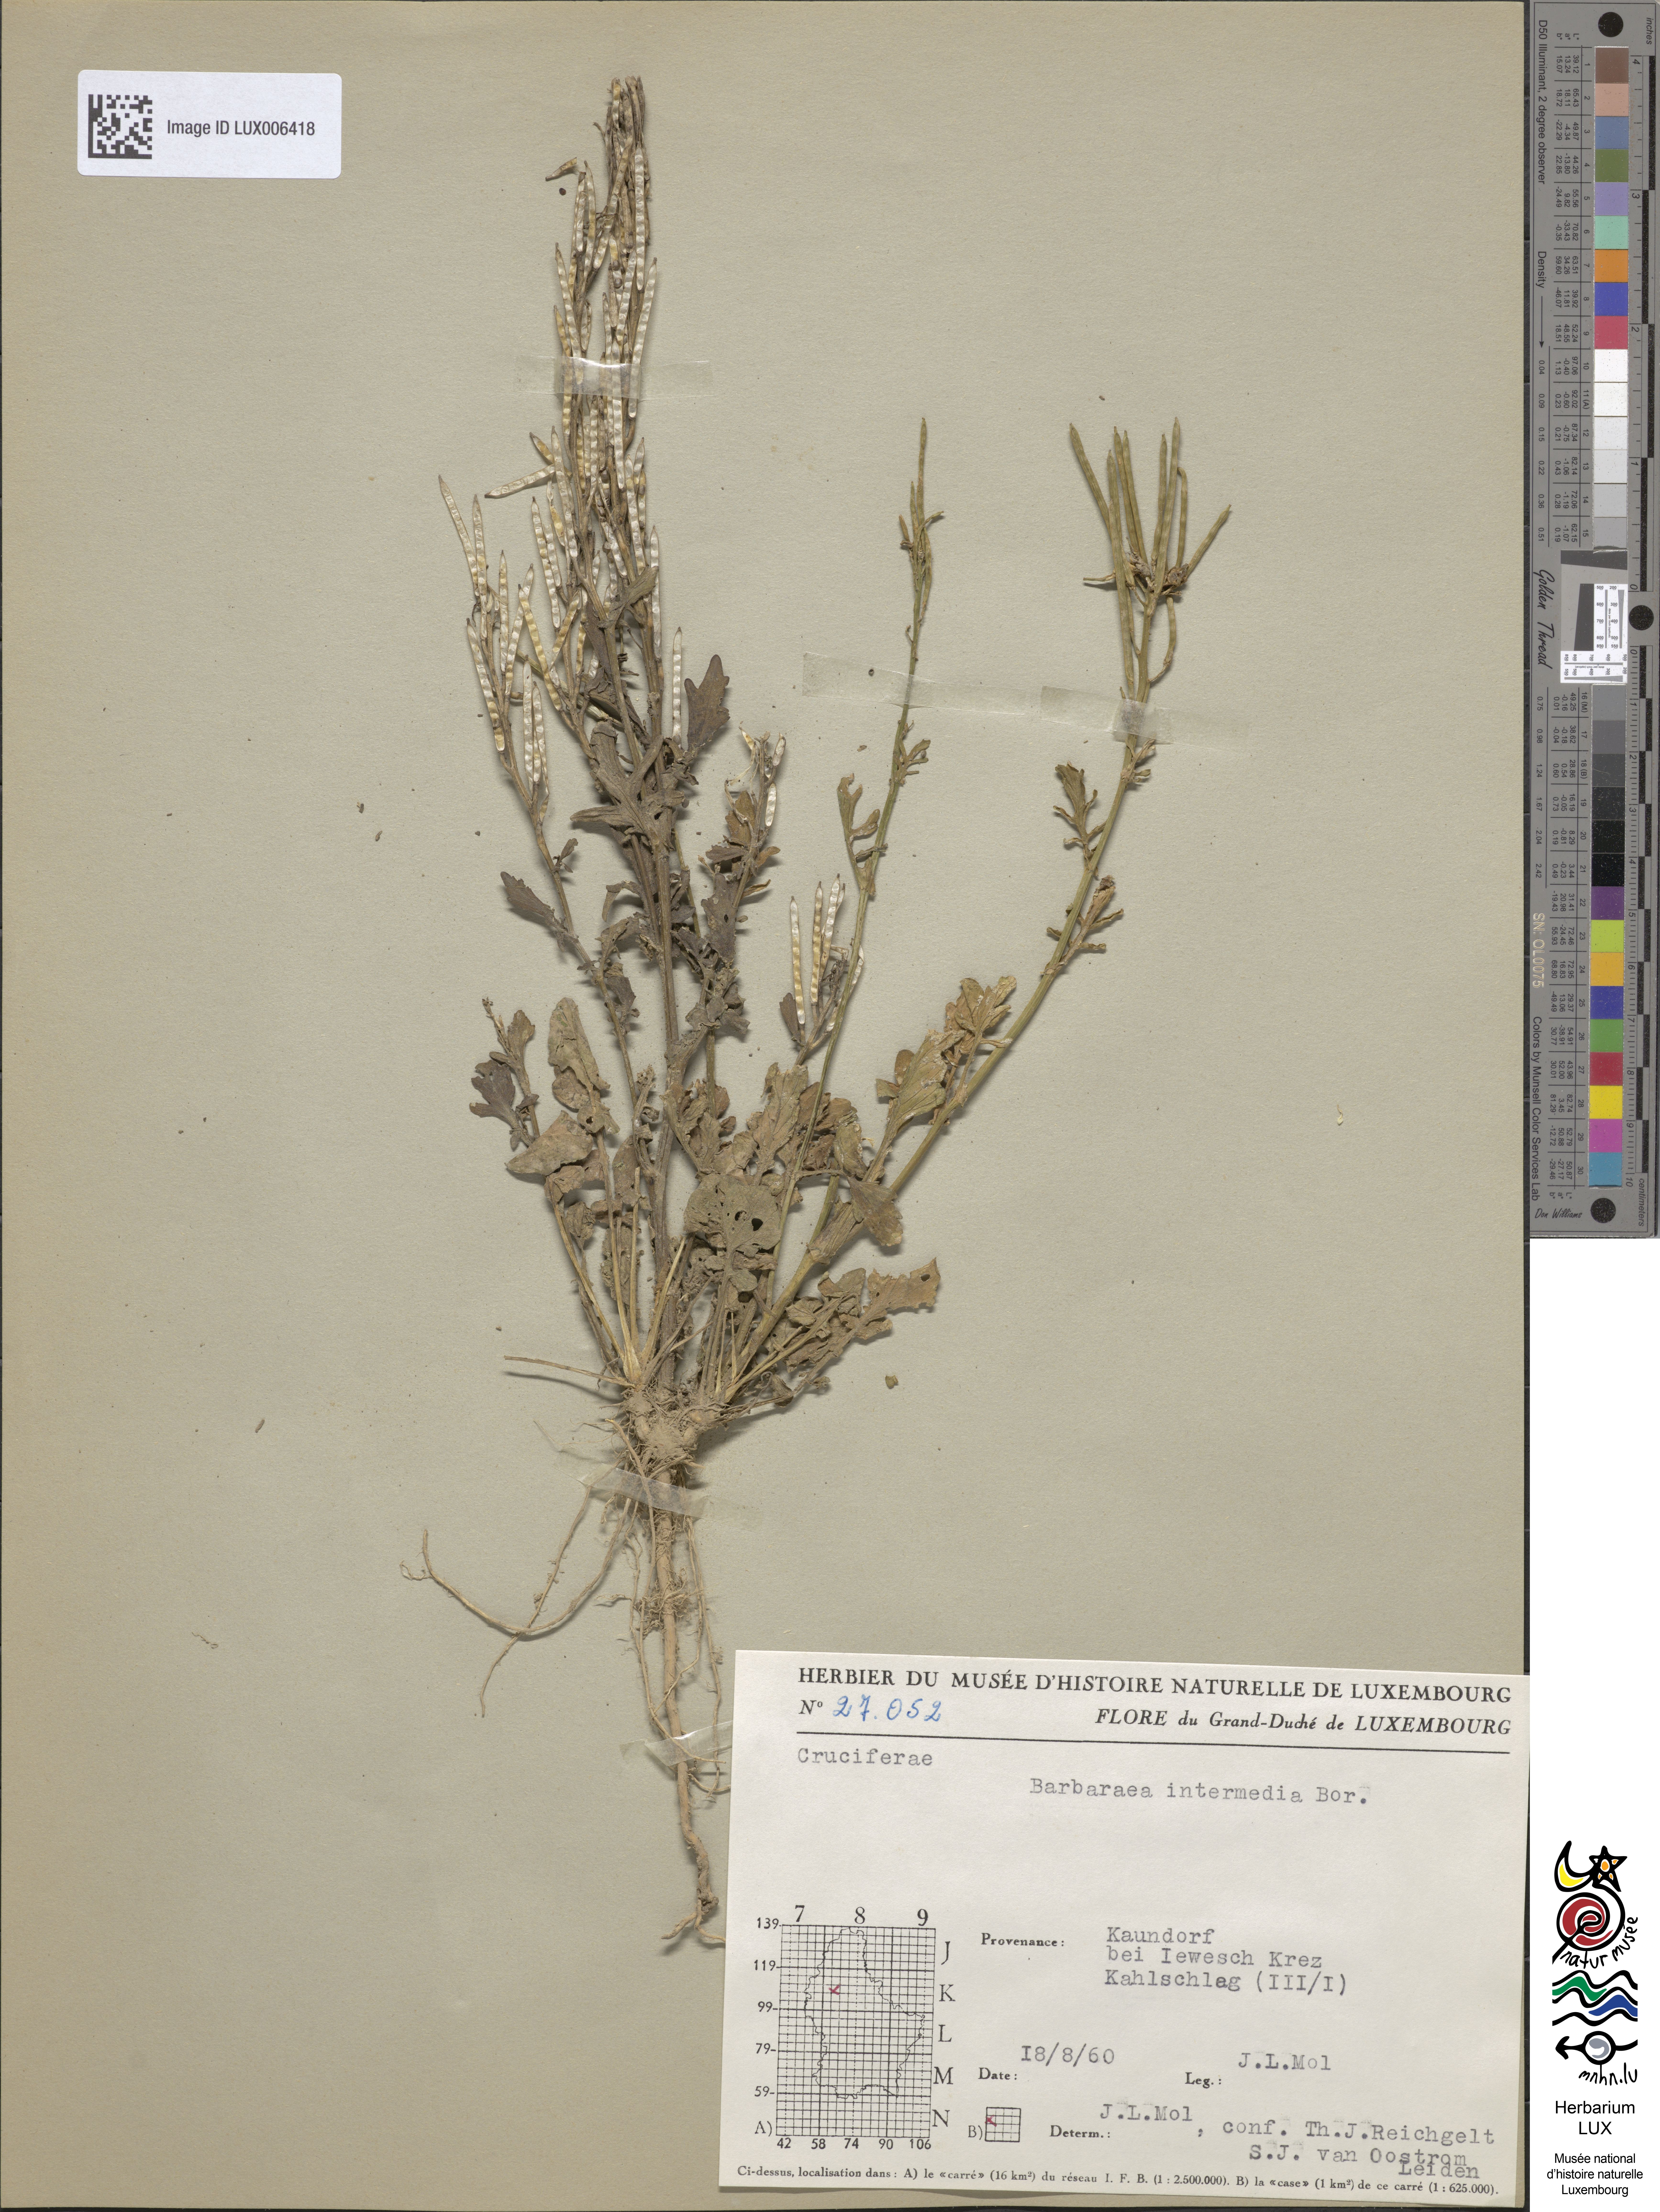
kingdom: Plantae
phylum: Tracheophyta
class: Magnoliopsida
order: Brassicales
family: Brassicaceae
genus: Barbarea
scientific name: Barbarea intermedia
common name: Medium-flowered winter-cress
